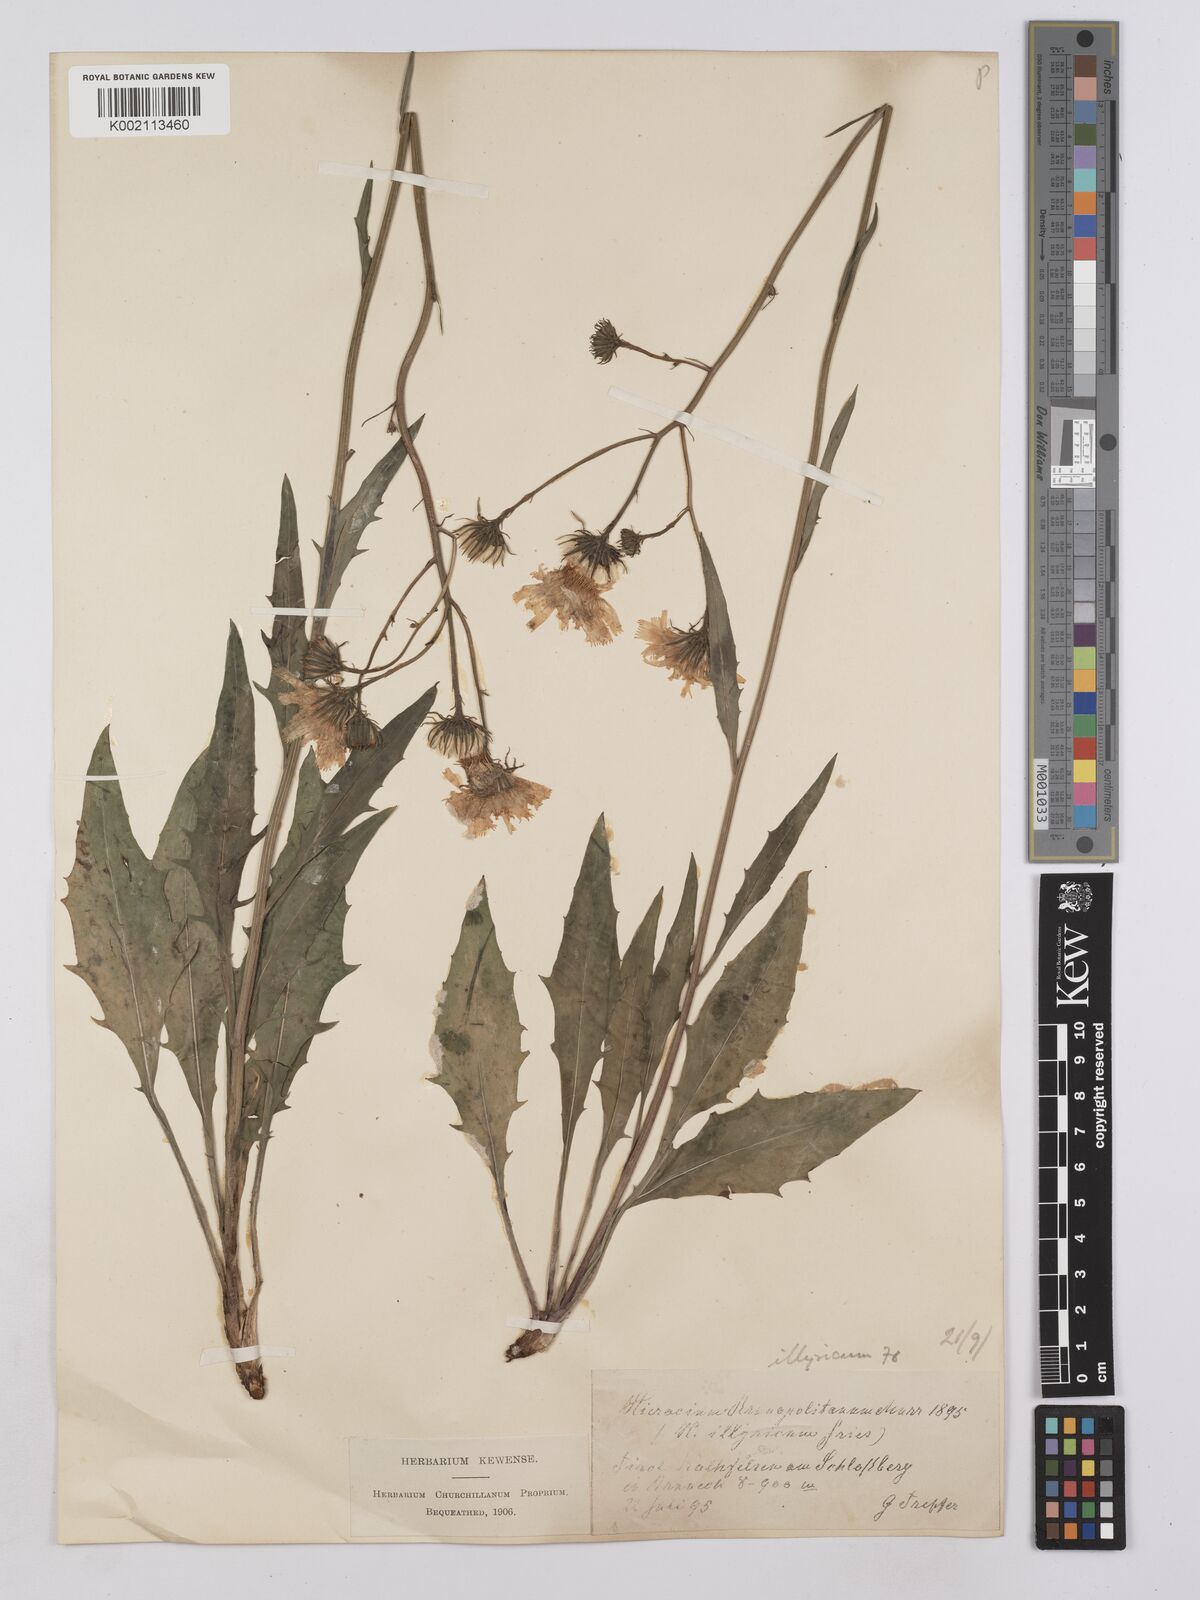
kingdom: Plantae
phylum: Tracheophyta
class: Magnoliopsida
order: Asterales
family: Asteraceae
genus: Hieracium
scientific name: Hieracium calcareum
